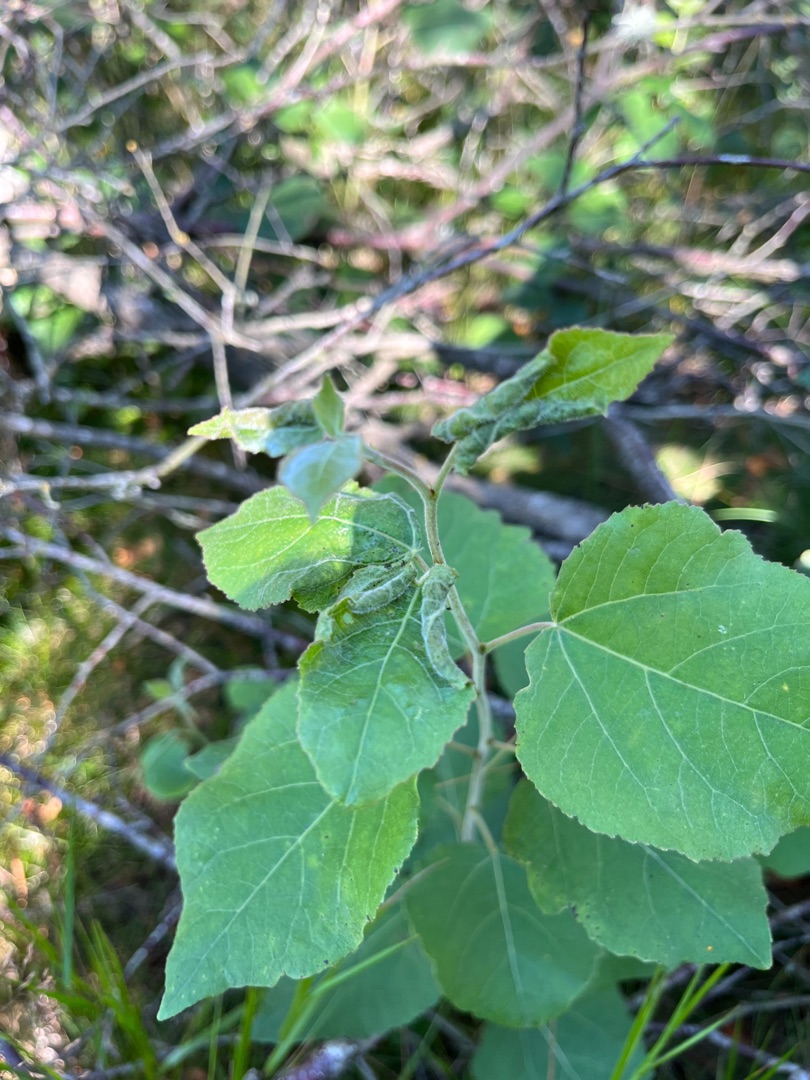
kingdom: Animalia
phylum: Arthropoda
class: Insecta
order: Diptera
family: Cecidomyiidae
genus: Dasineura
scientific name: Dasineura populeti
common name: Asperullergalmyg
